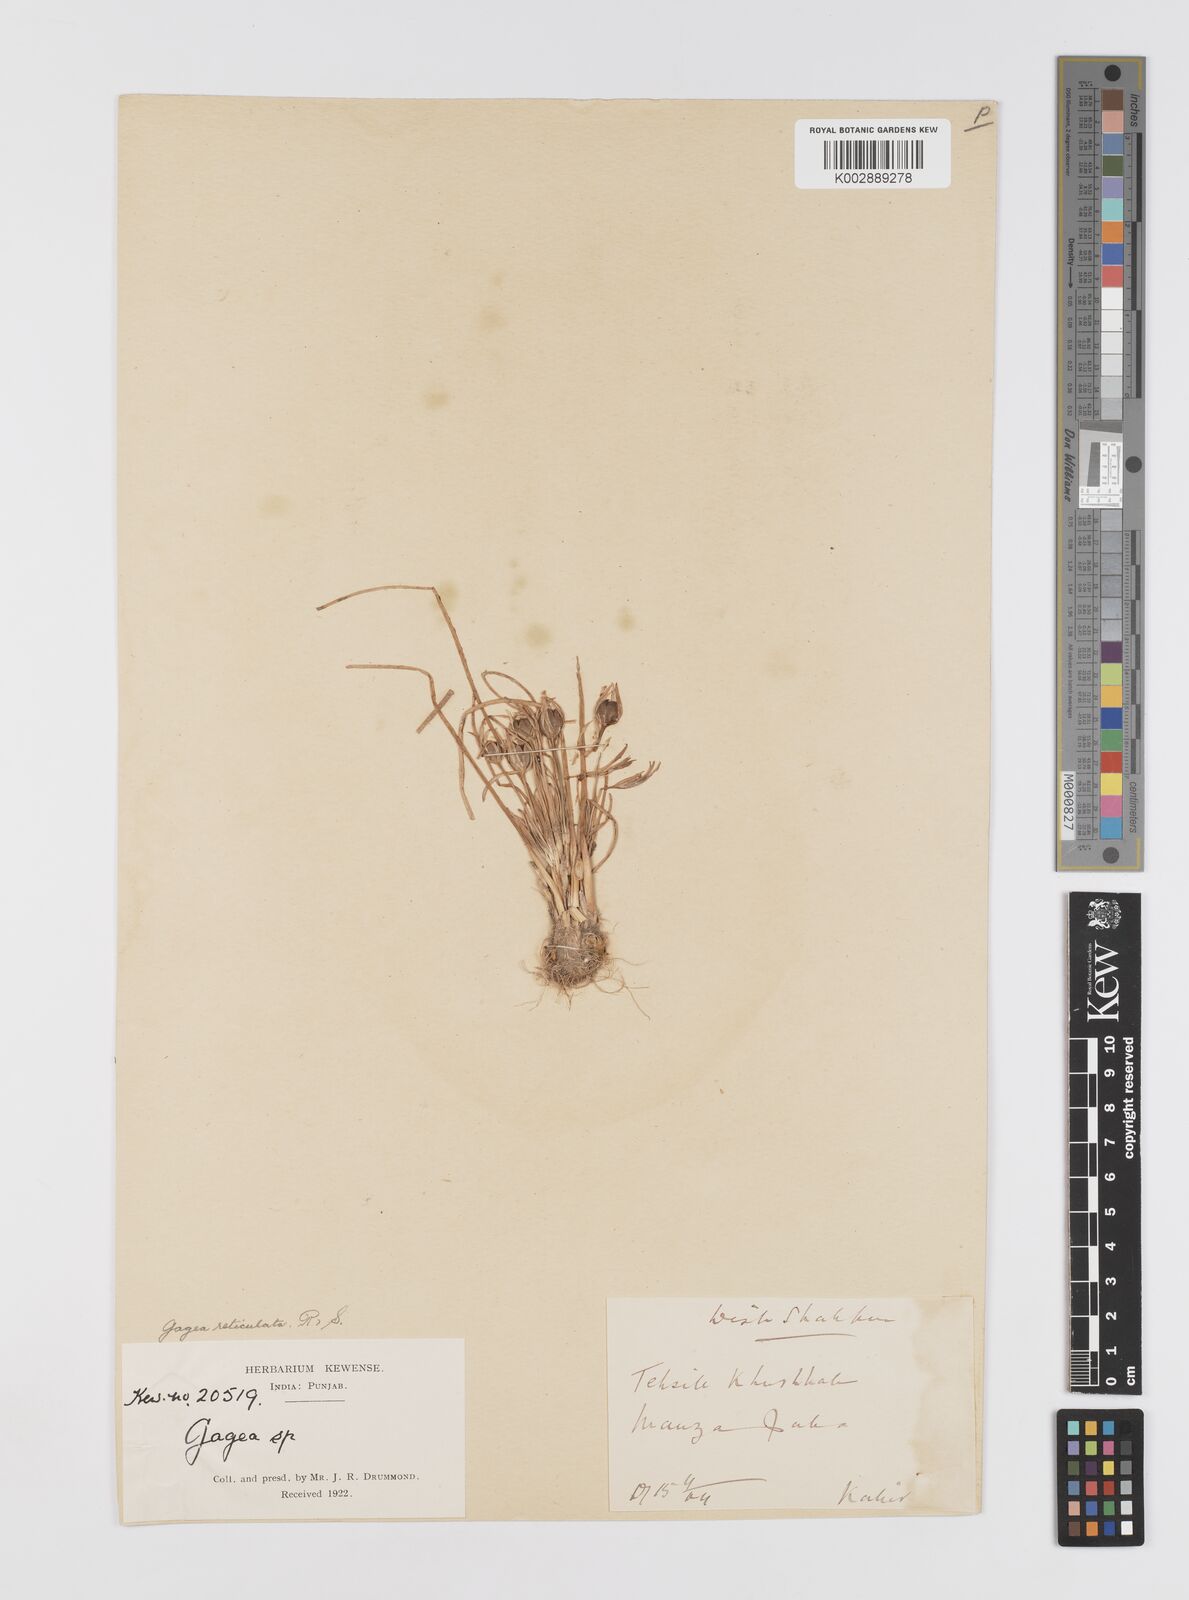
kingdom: Plantae
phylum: Tracheophyta
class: Liliopsida
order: Liliales
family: Liliaceae
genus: Gagea
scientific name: Gagea reticulata
